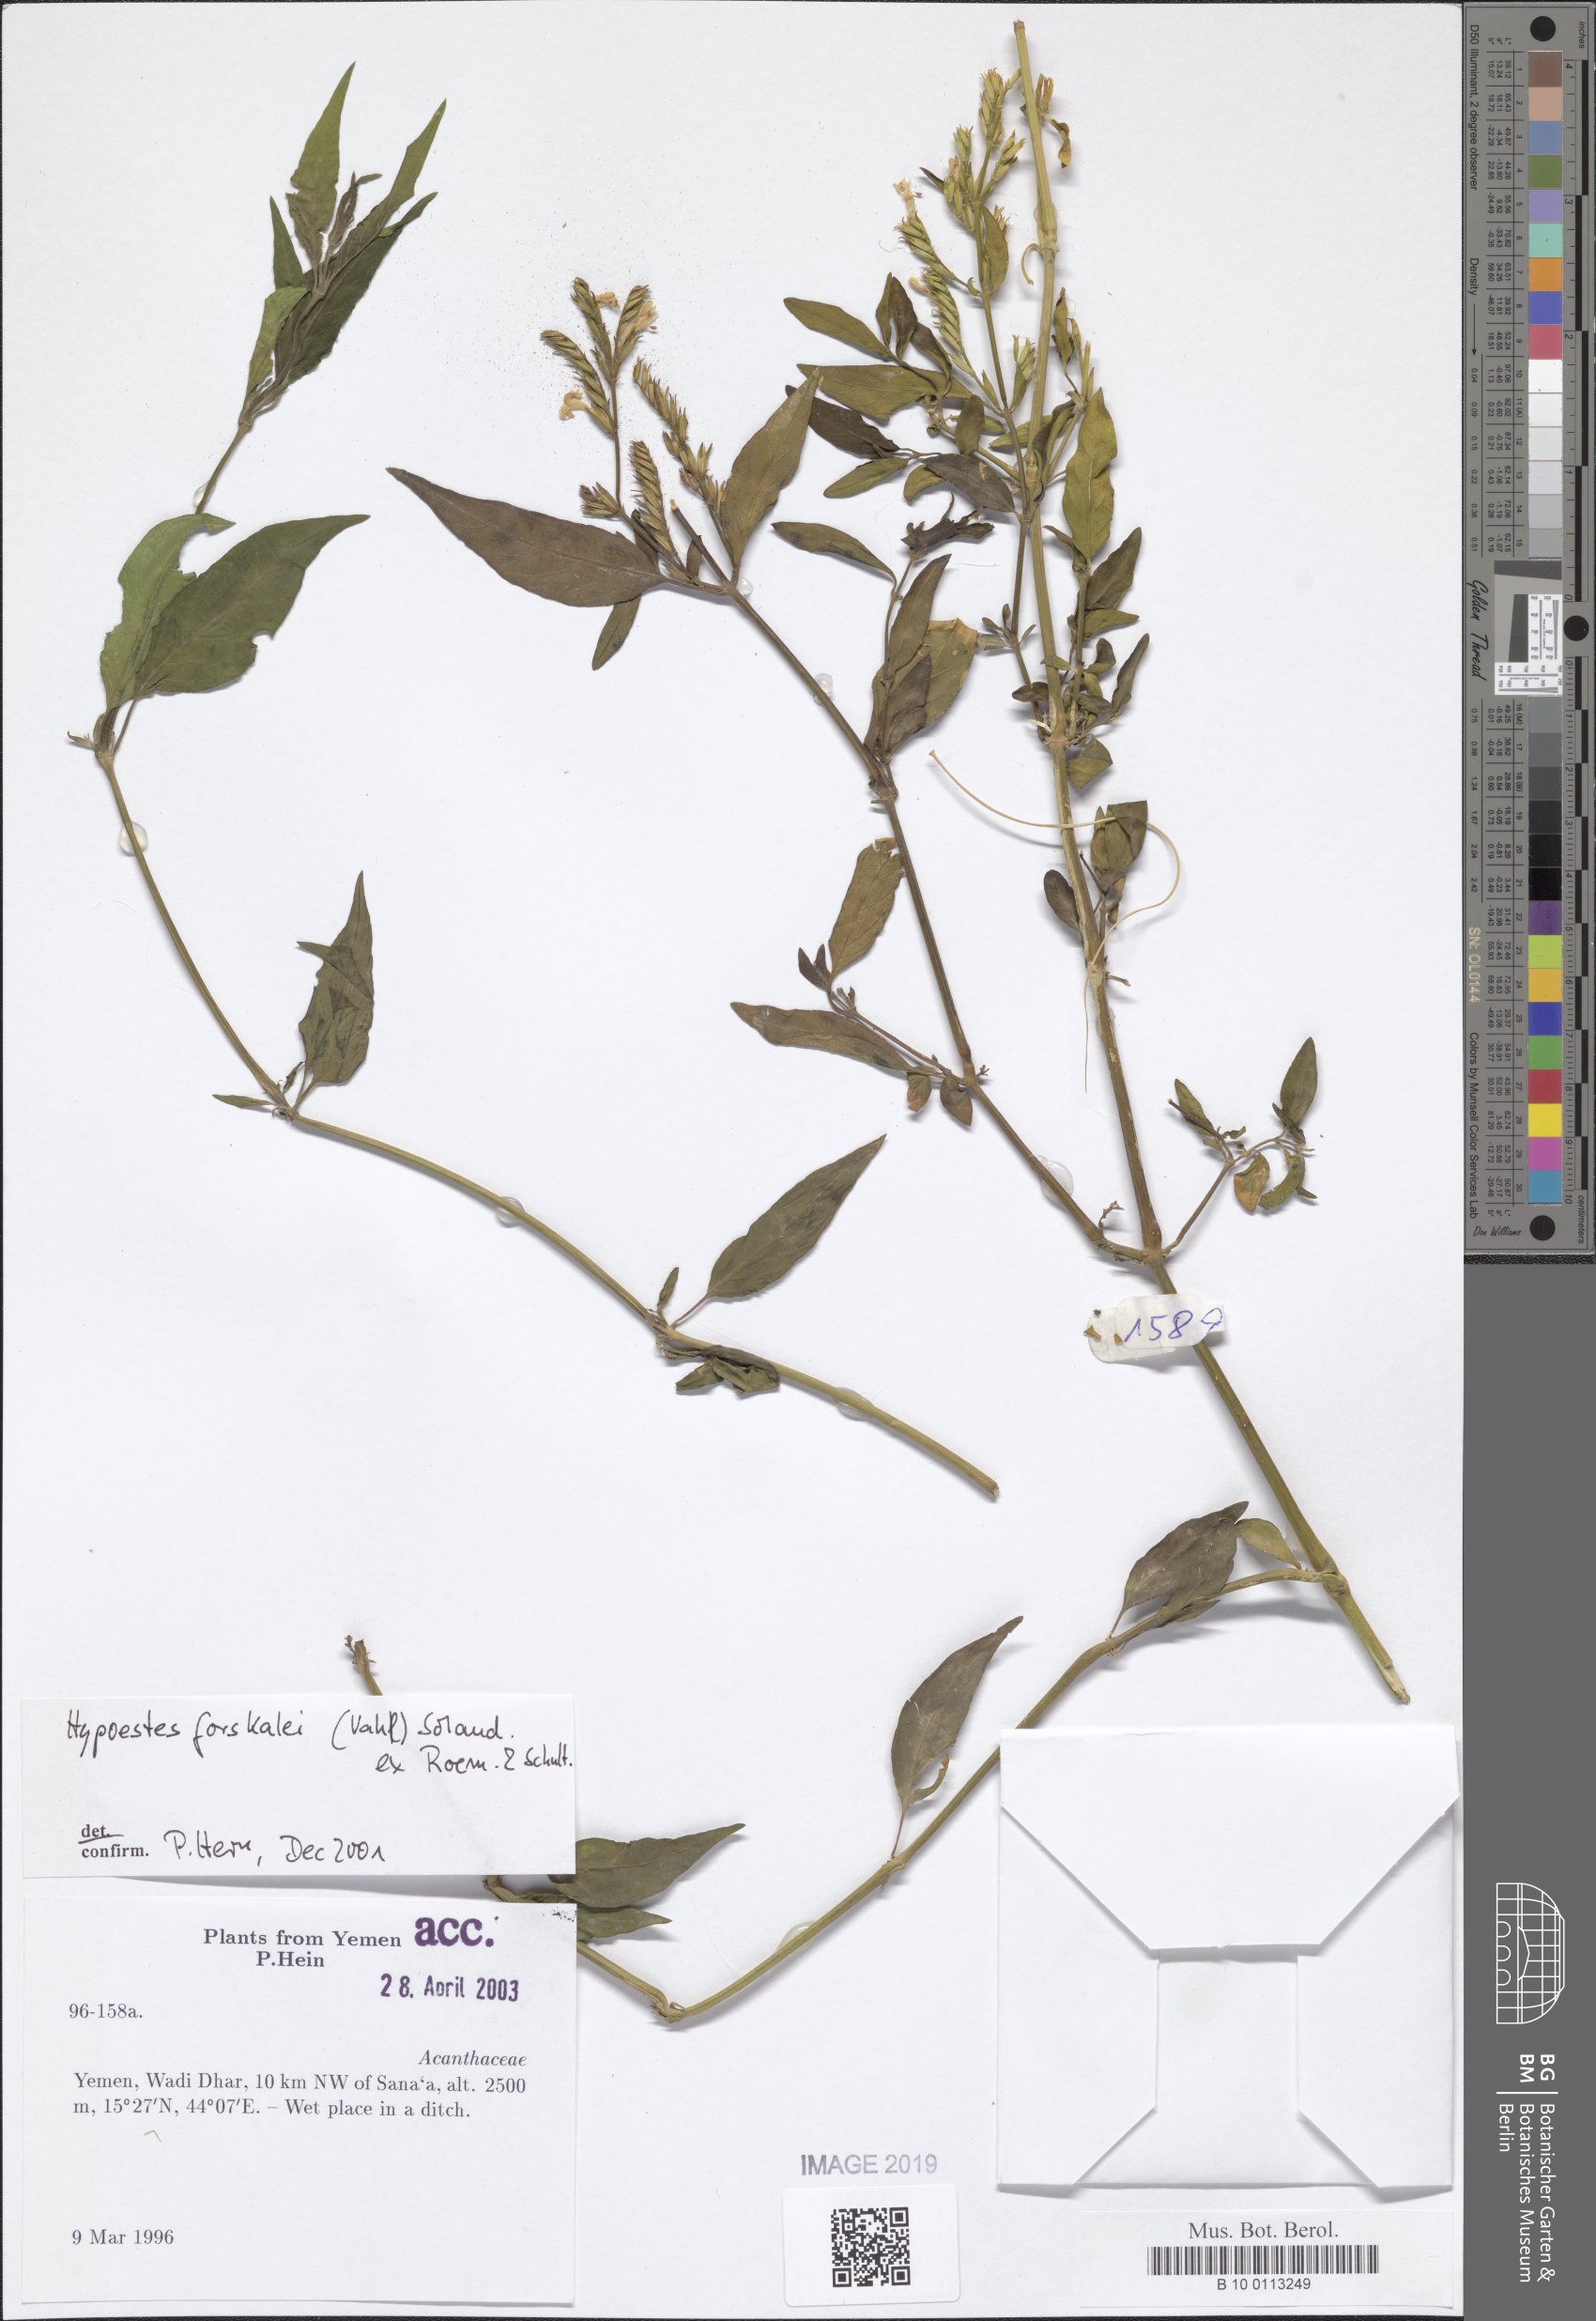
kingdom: Plantae
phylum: Tracheophyta
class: Magnoliopsida
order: Lamiales
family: Acanthaceae
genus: Hypoestes
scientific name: Hypoestes forskaolii
